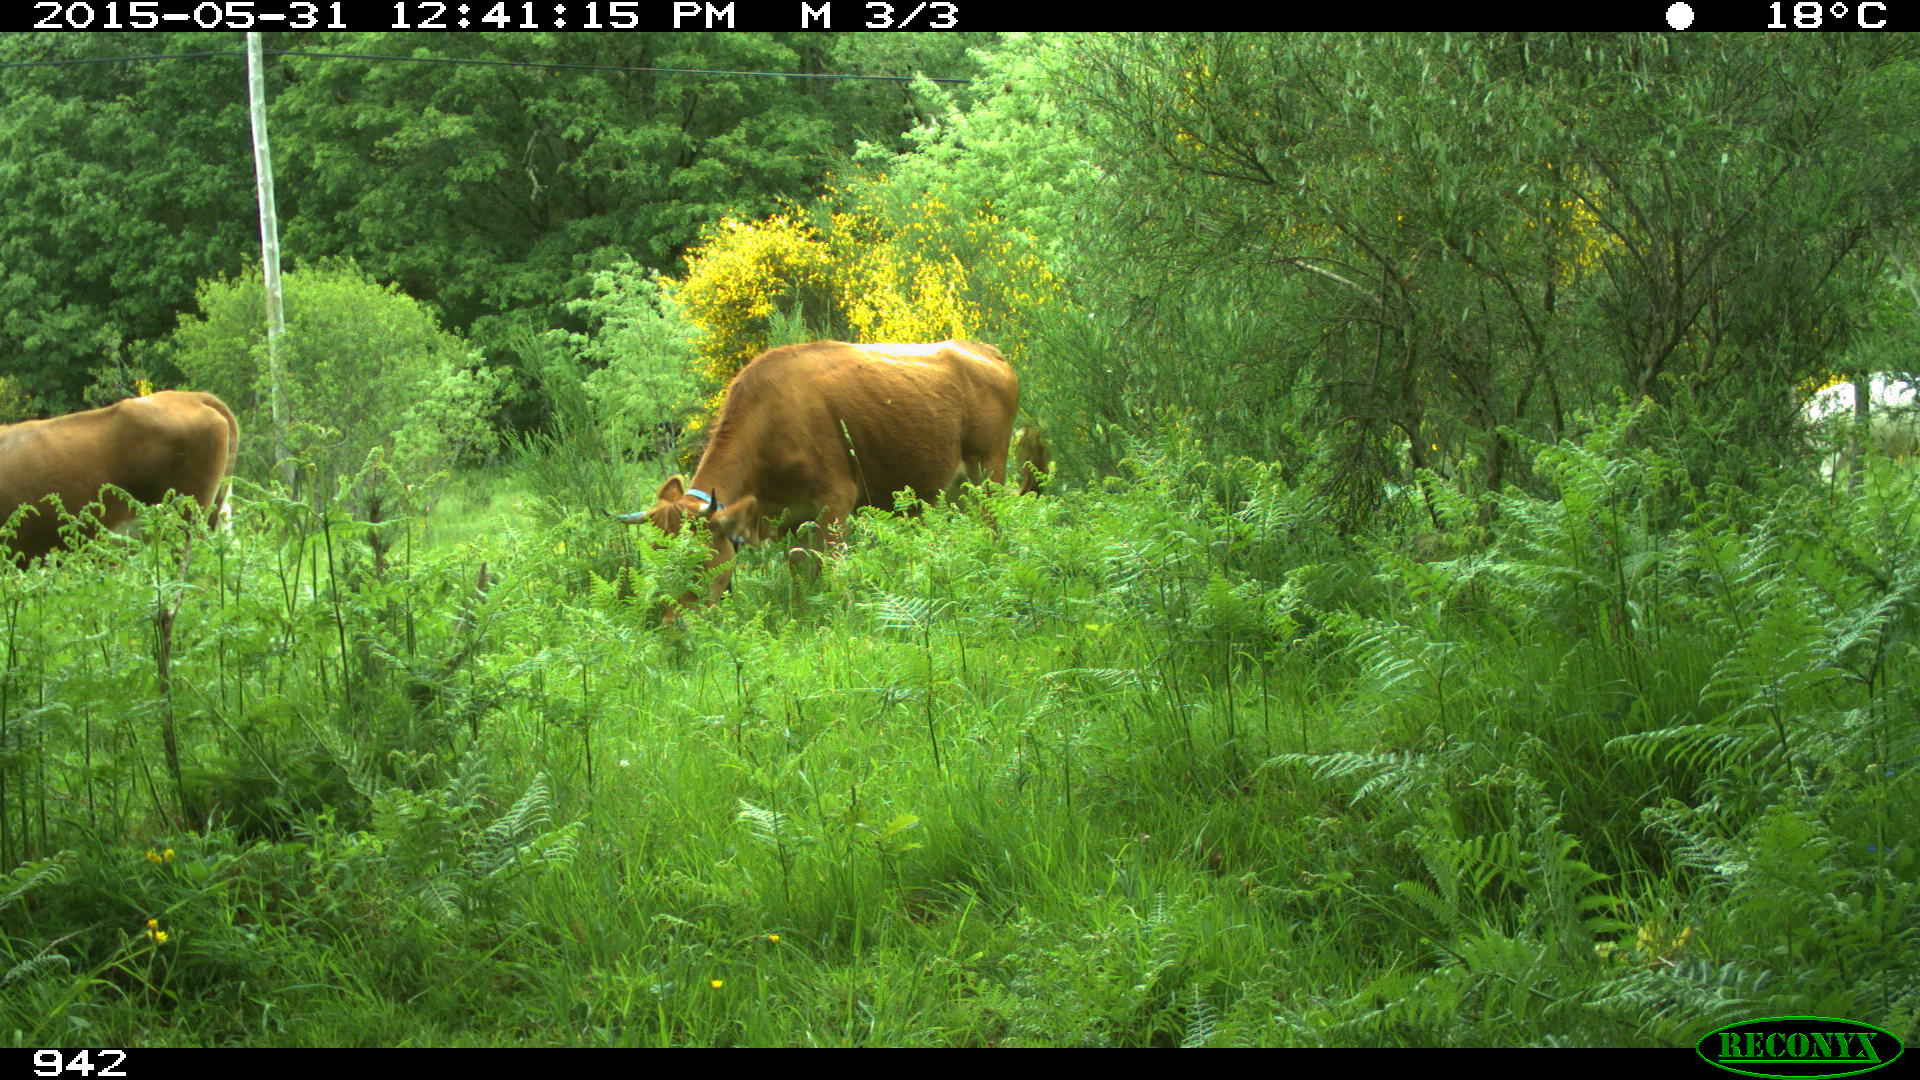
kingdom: Animalia
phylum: Chordata
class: Mammalia
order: Artiodactyla
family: Bovidae
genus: Bos
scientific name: Bos taurus
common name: Domesticated cattle
